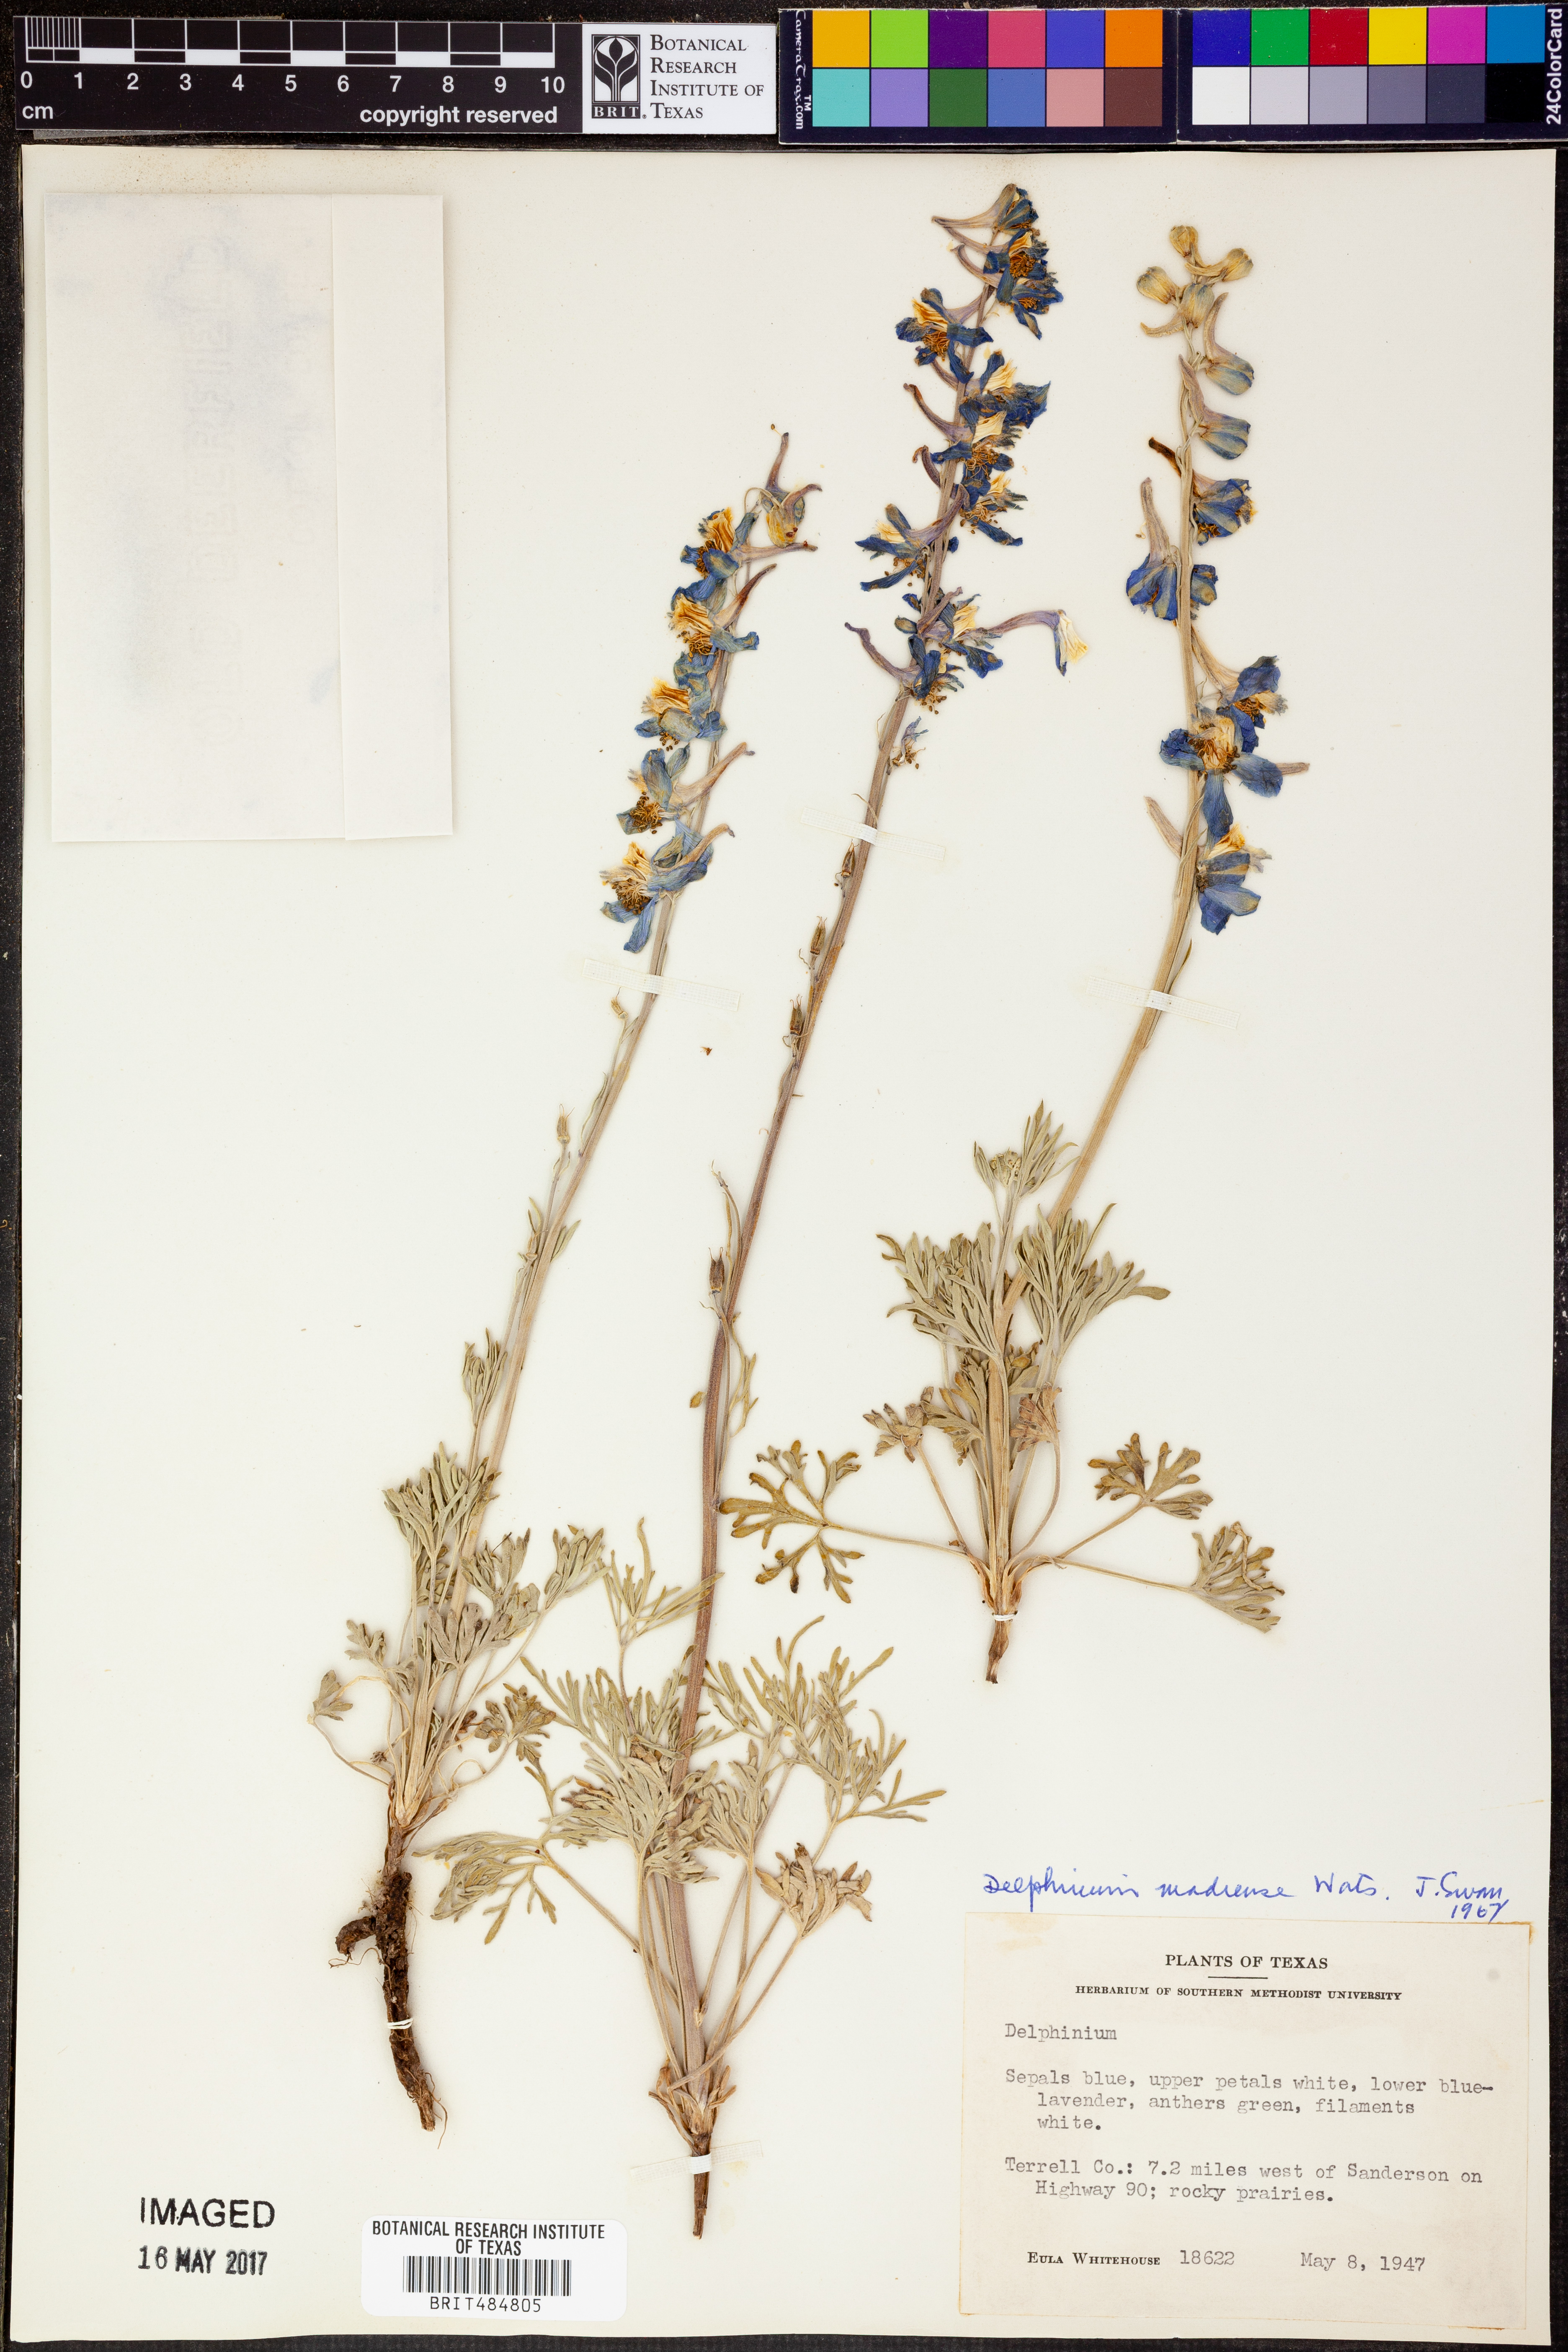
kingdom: Plantae
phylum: Tracheophyta
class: Magnoliopsida
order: Ranunculales
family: Ranunculaceae
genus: Delphinium
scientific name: Delphinium madrense
